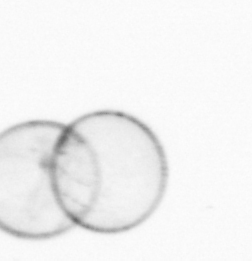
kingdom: Chromista
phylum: Myzozoa
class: Dinophyceae
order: Noctilucales
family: Noctilucaceae
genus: Noctiluca
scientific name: Noctiluca scintillans
